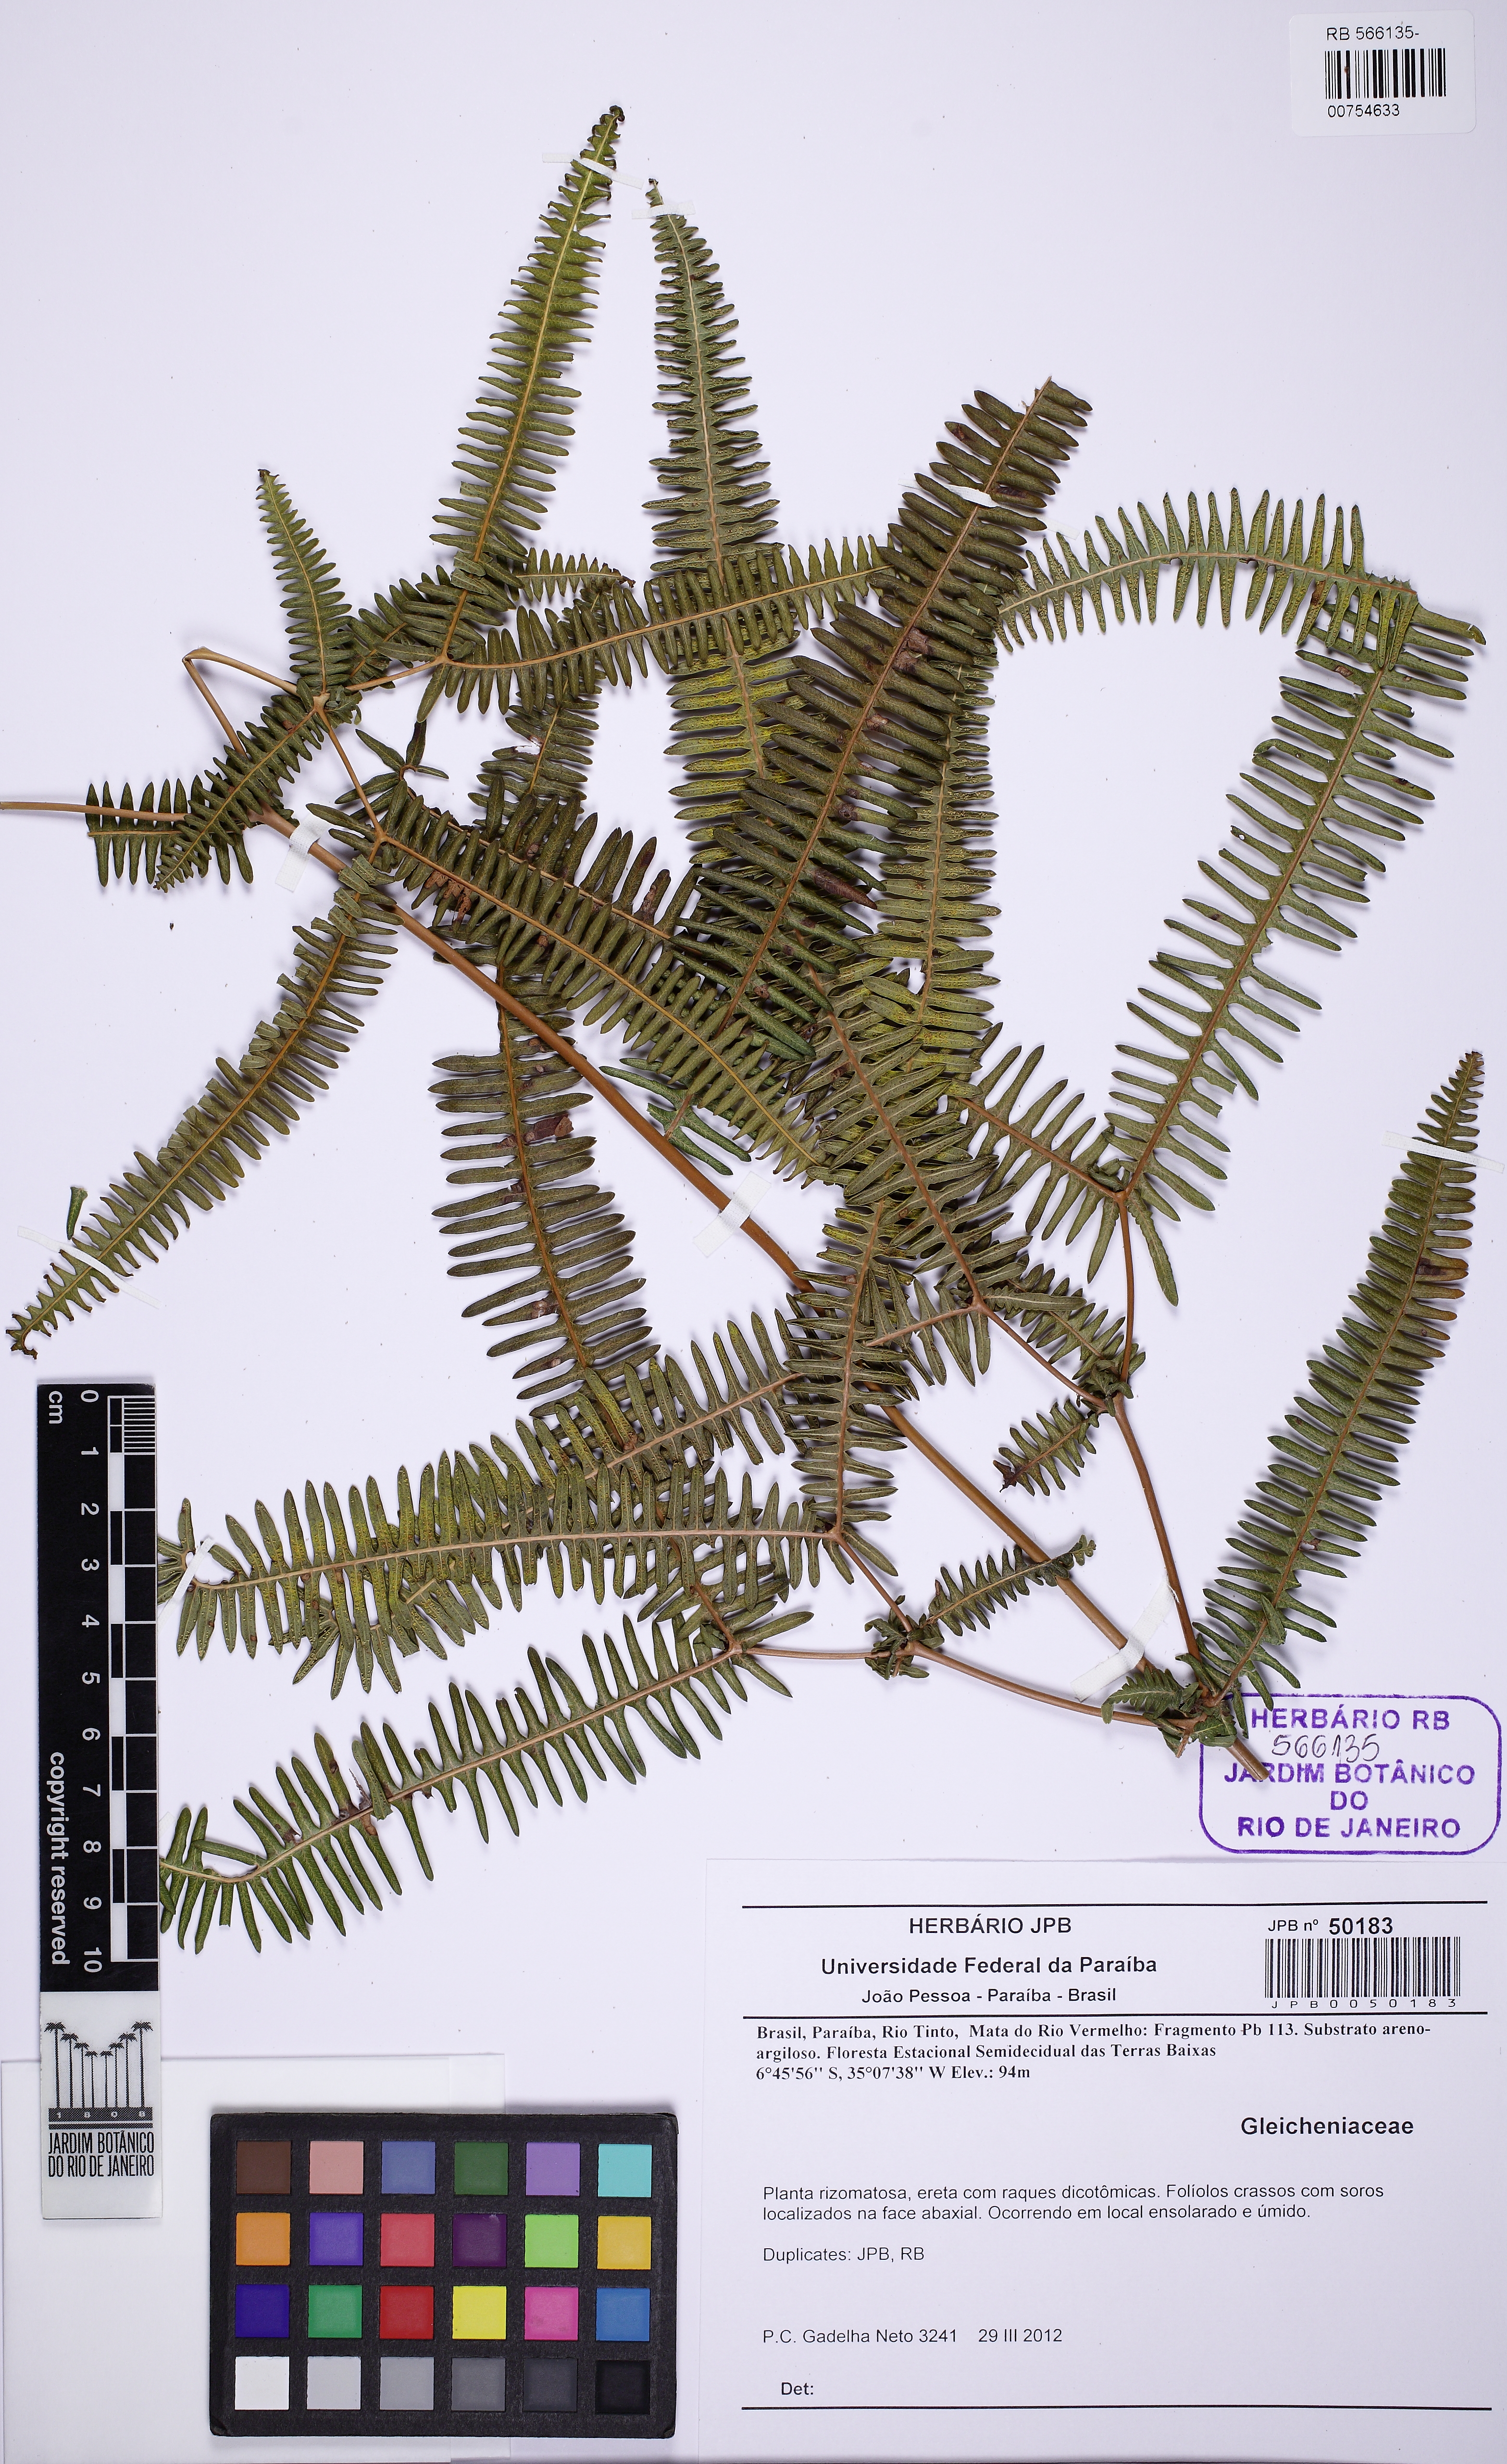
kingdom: Plantae
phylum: Tracheophyta
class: Polypodiopsida
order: Gleicheniales
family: Gleicheniaceae
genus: Dicranopteris
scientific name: Dicranopteris flexuosa
